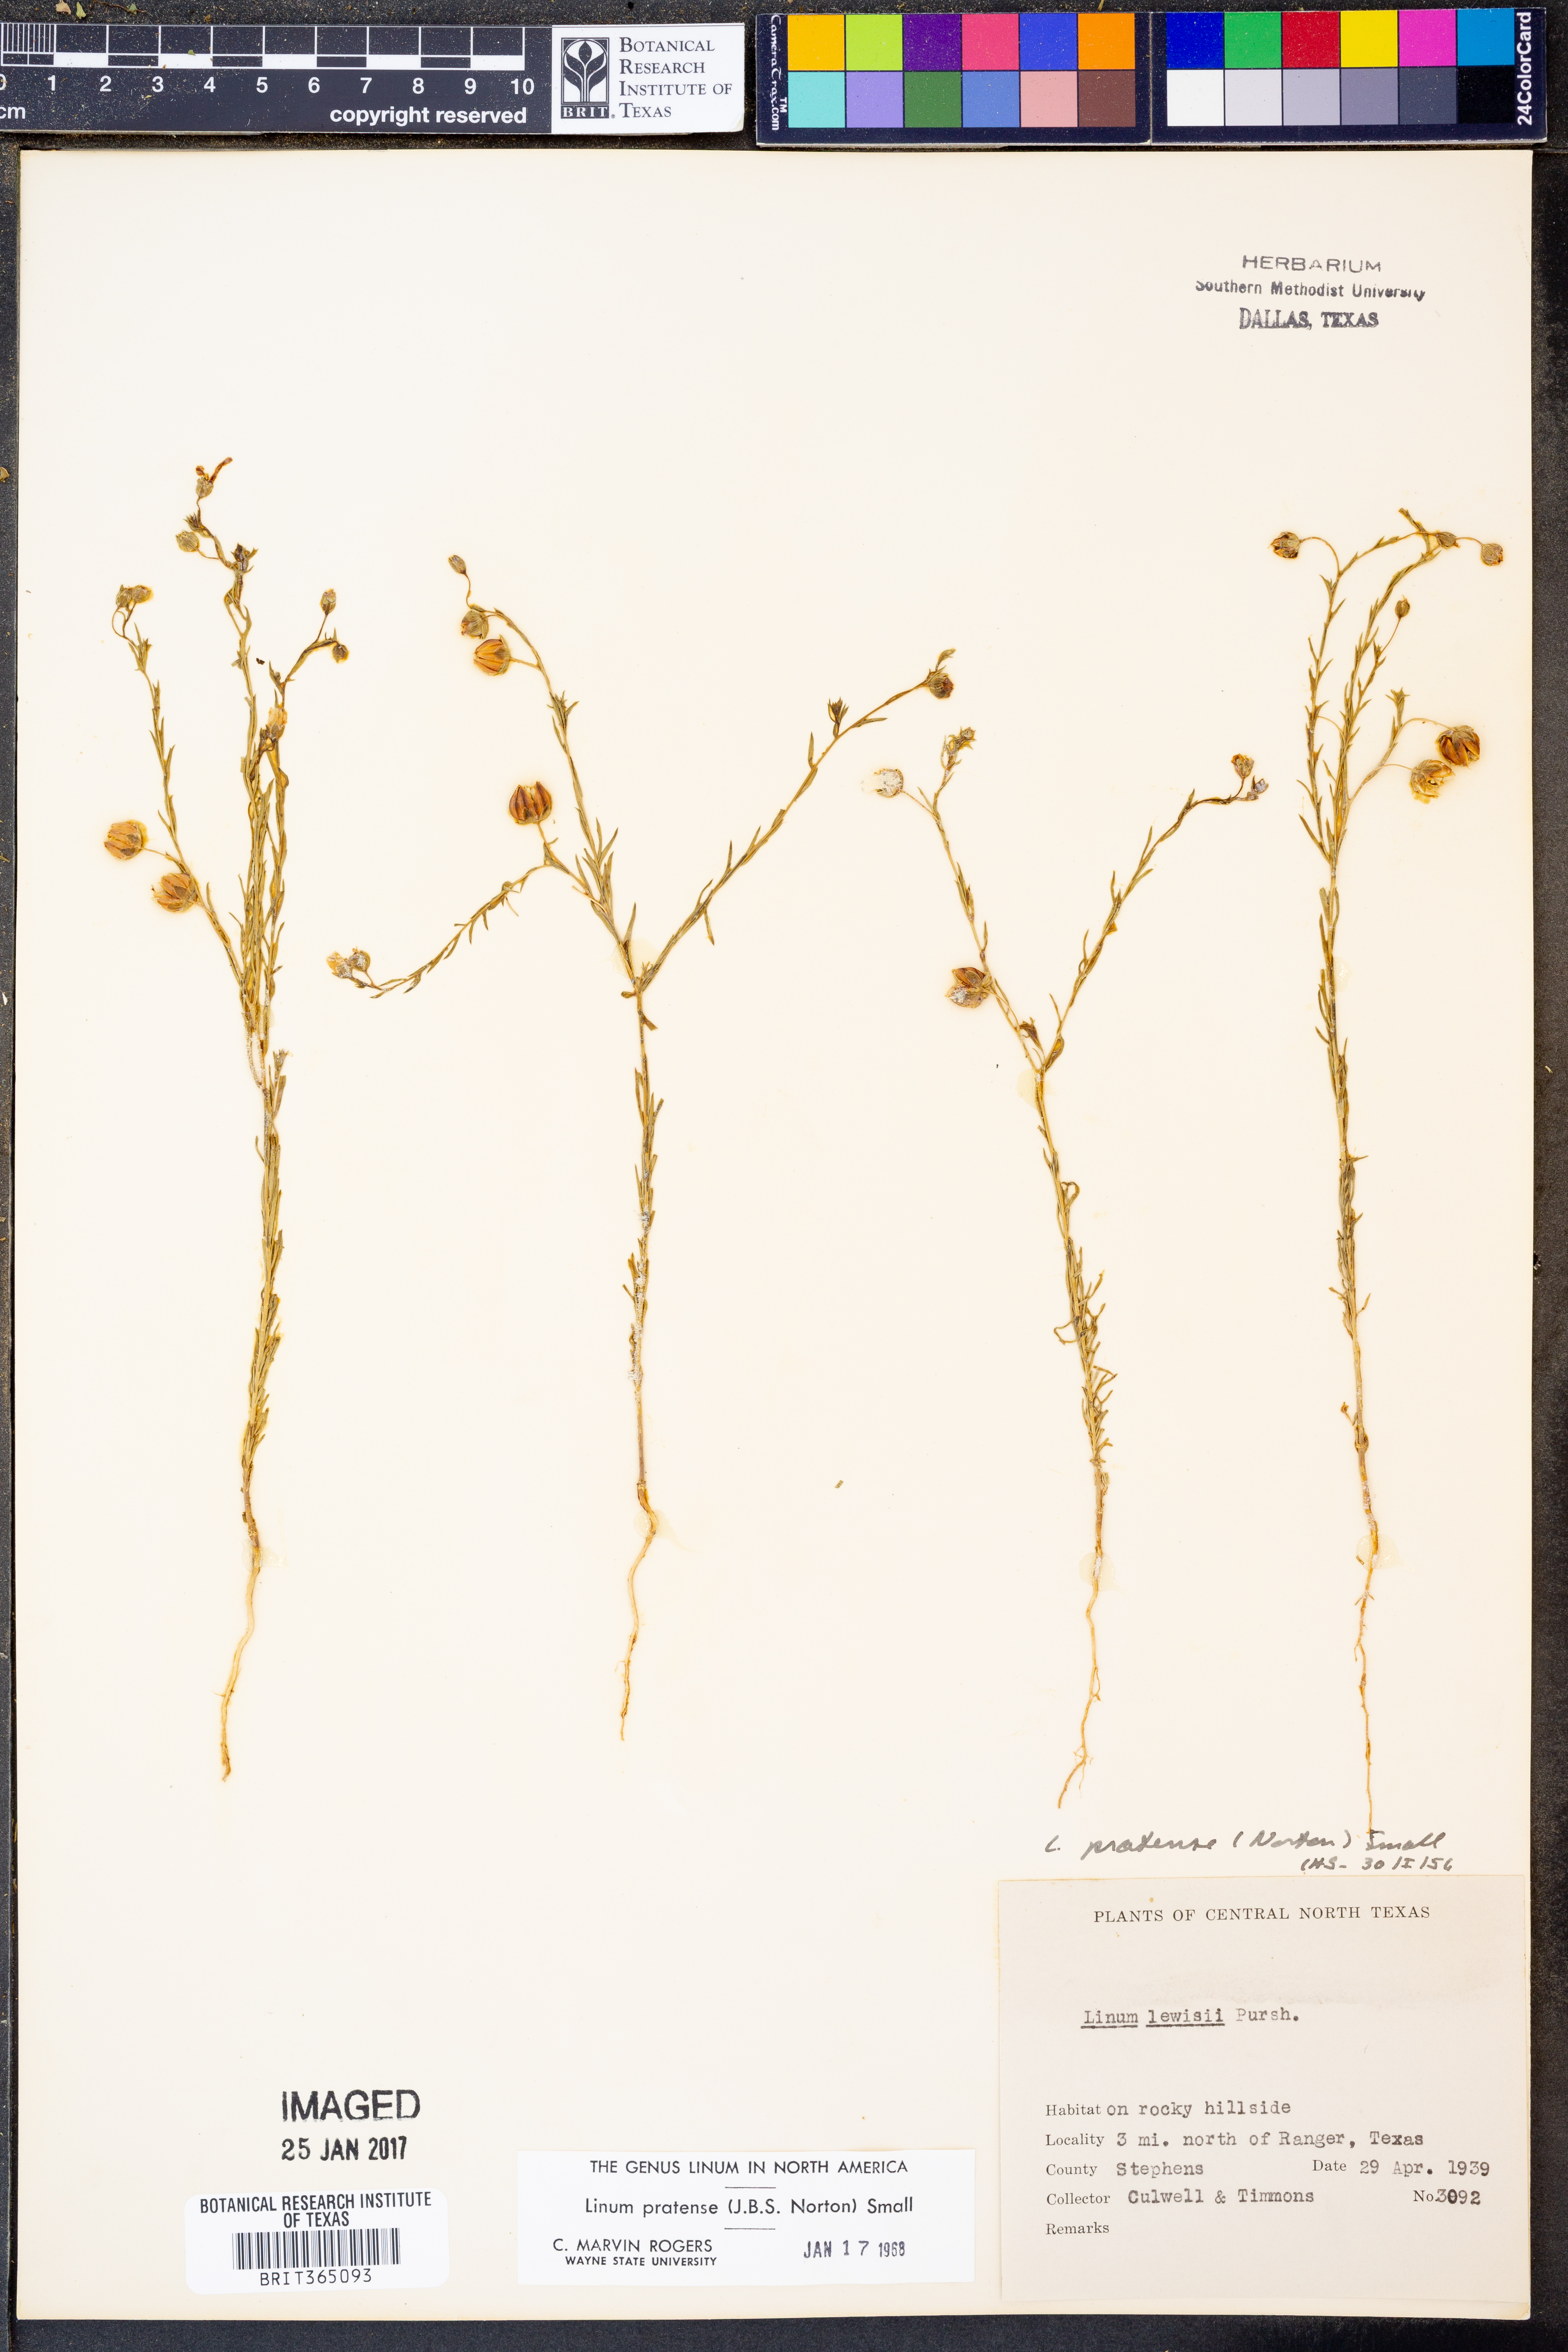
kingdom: Plantae
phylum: Tracheophyta
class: Magnoliopsida
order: Malpighiales
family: Linaceae
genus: Linum
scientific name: Linum pratense
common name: Norton's flax
